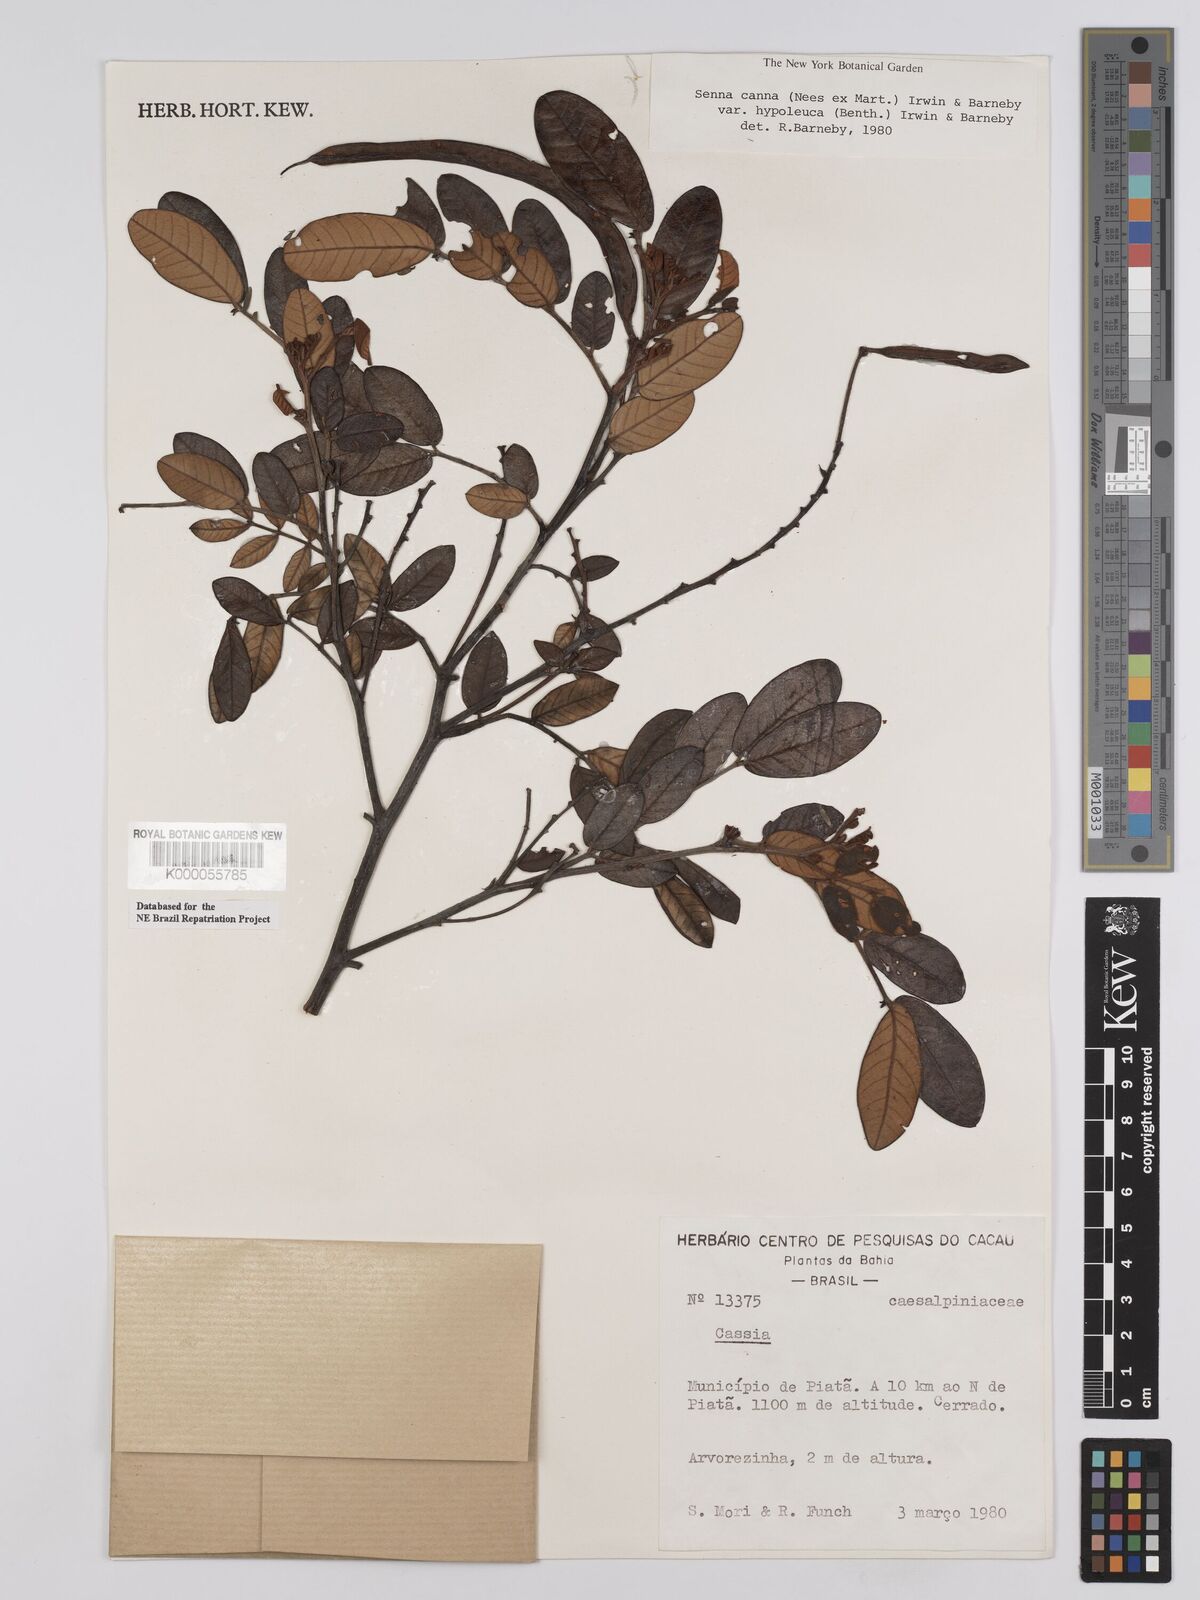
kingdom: Plantae
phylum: Tracheophyta
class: Magnoliopsida
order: Fabales
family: Fabaceae
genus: Senna
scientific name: Senna cana
